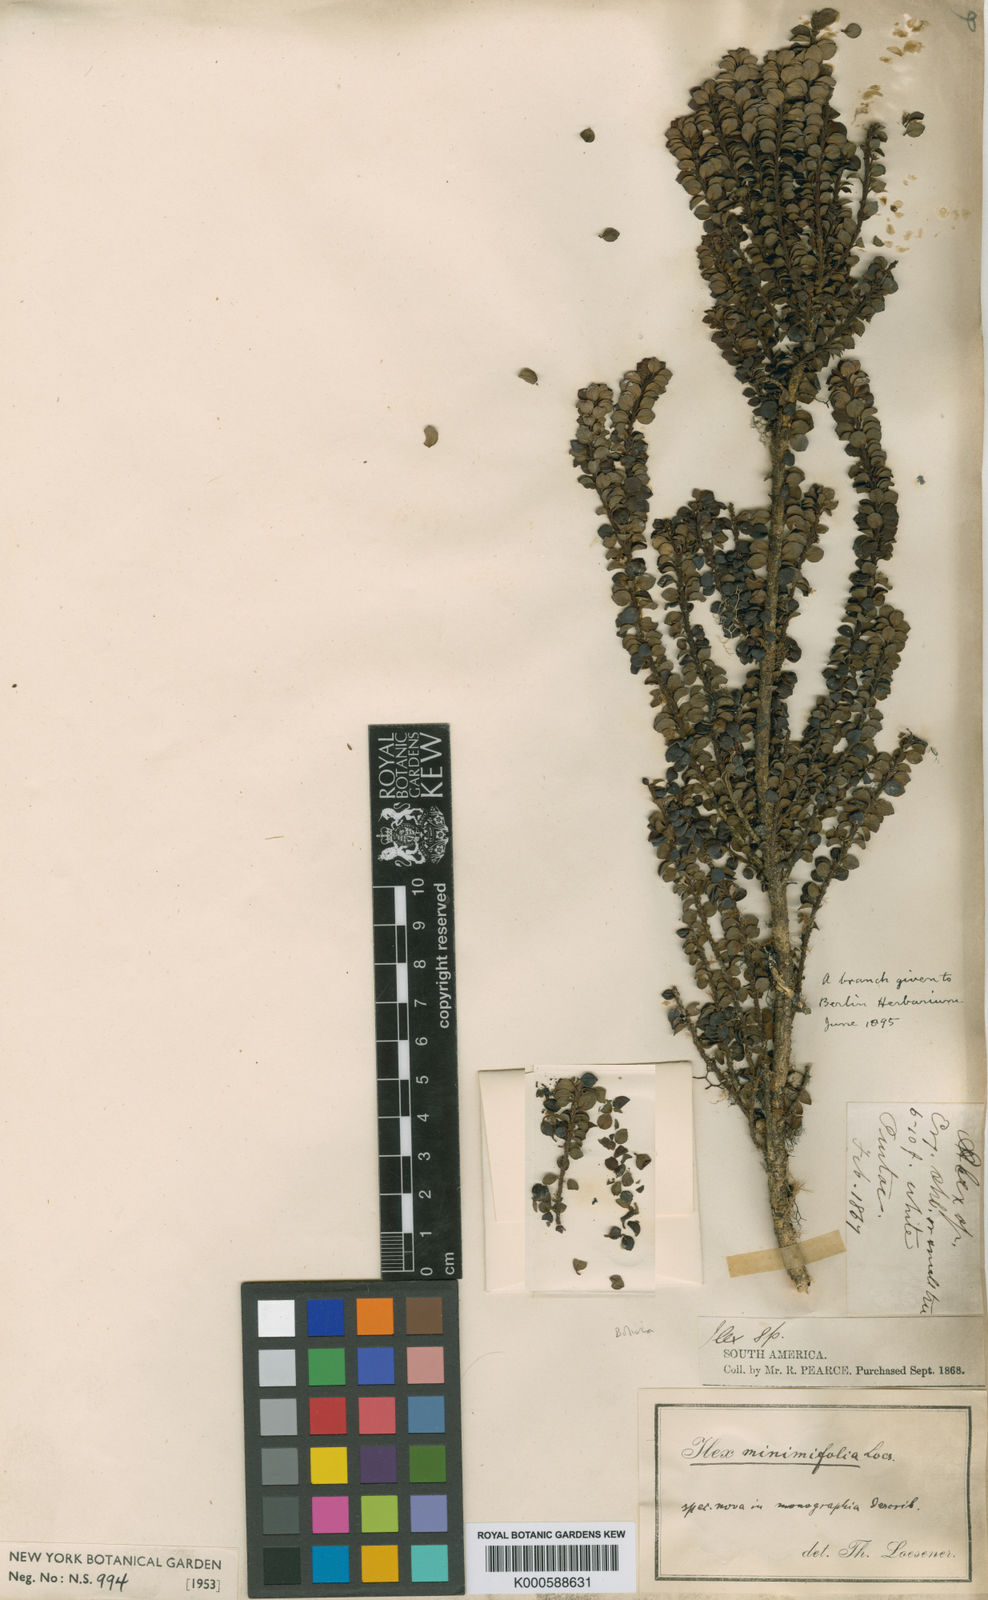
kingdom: Plantae
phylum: Tracheophyta
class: Magnoliopsida
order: Aquifoliales
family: Aquifoliaceae
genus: Ilex
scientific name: Ilex trichoclada
